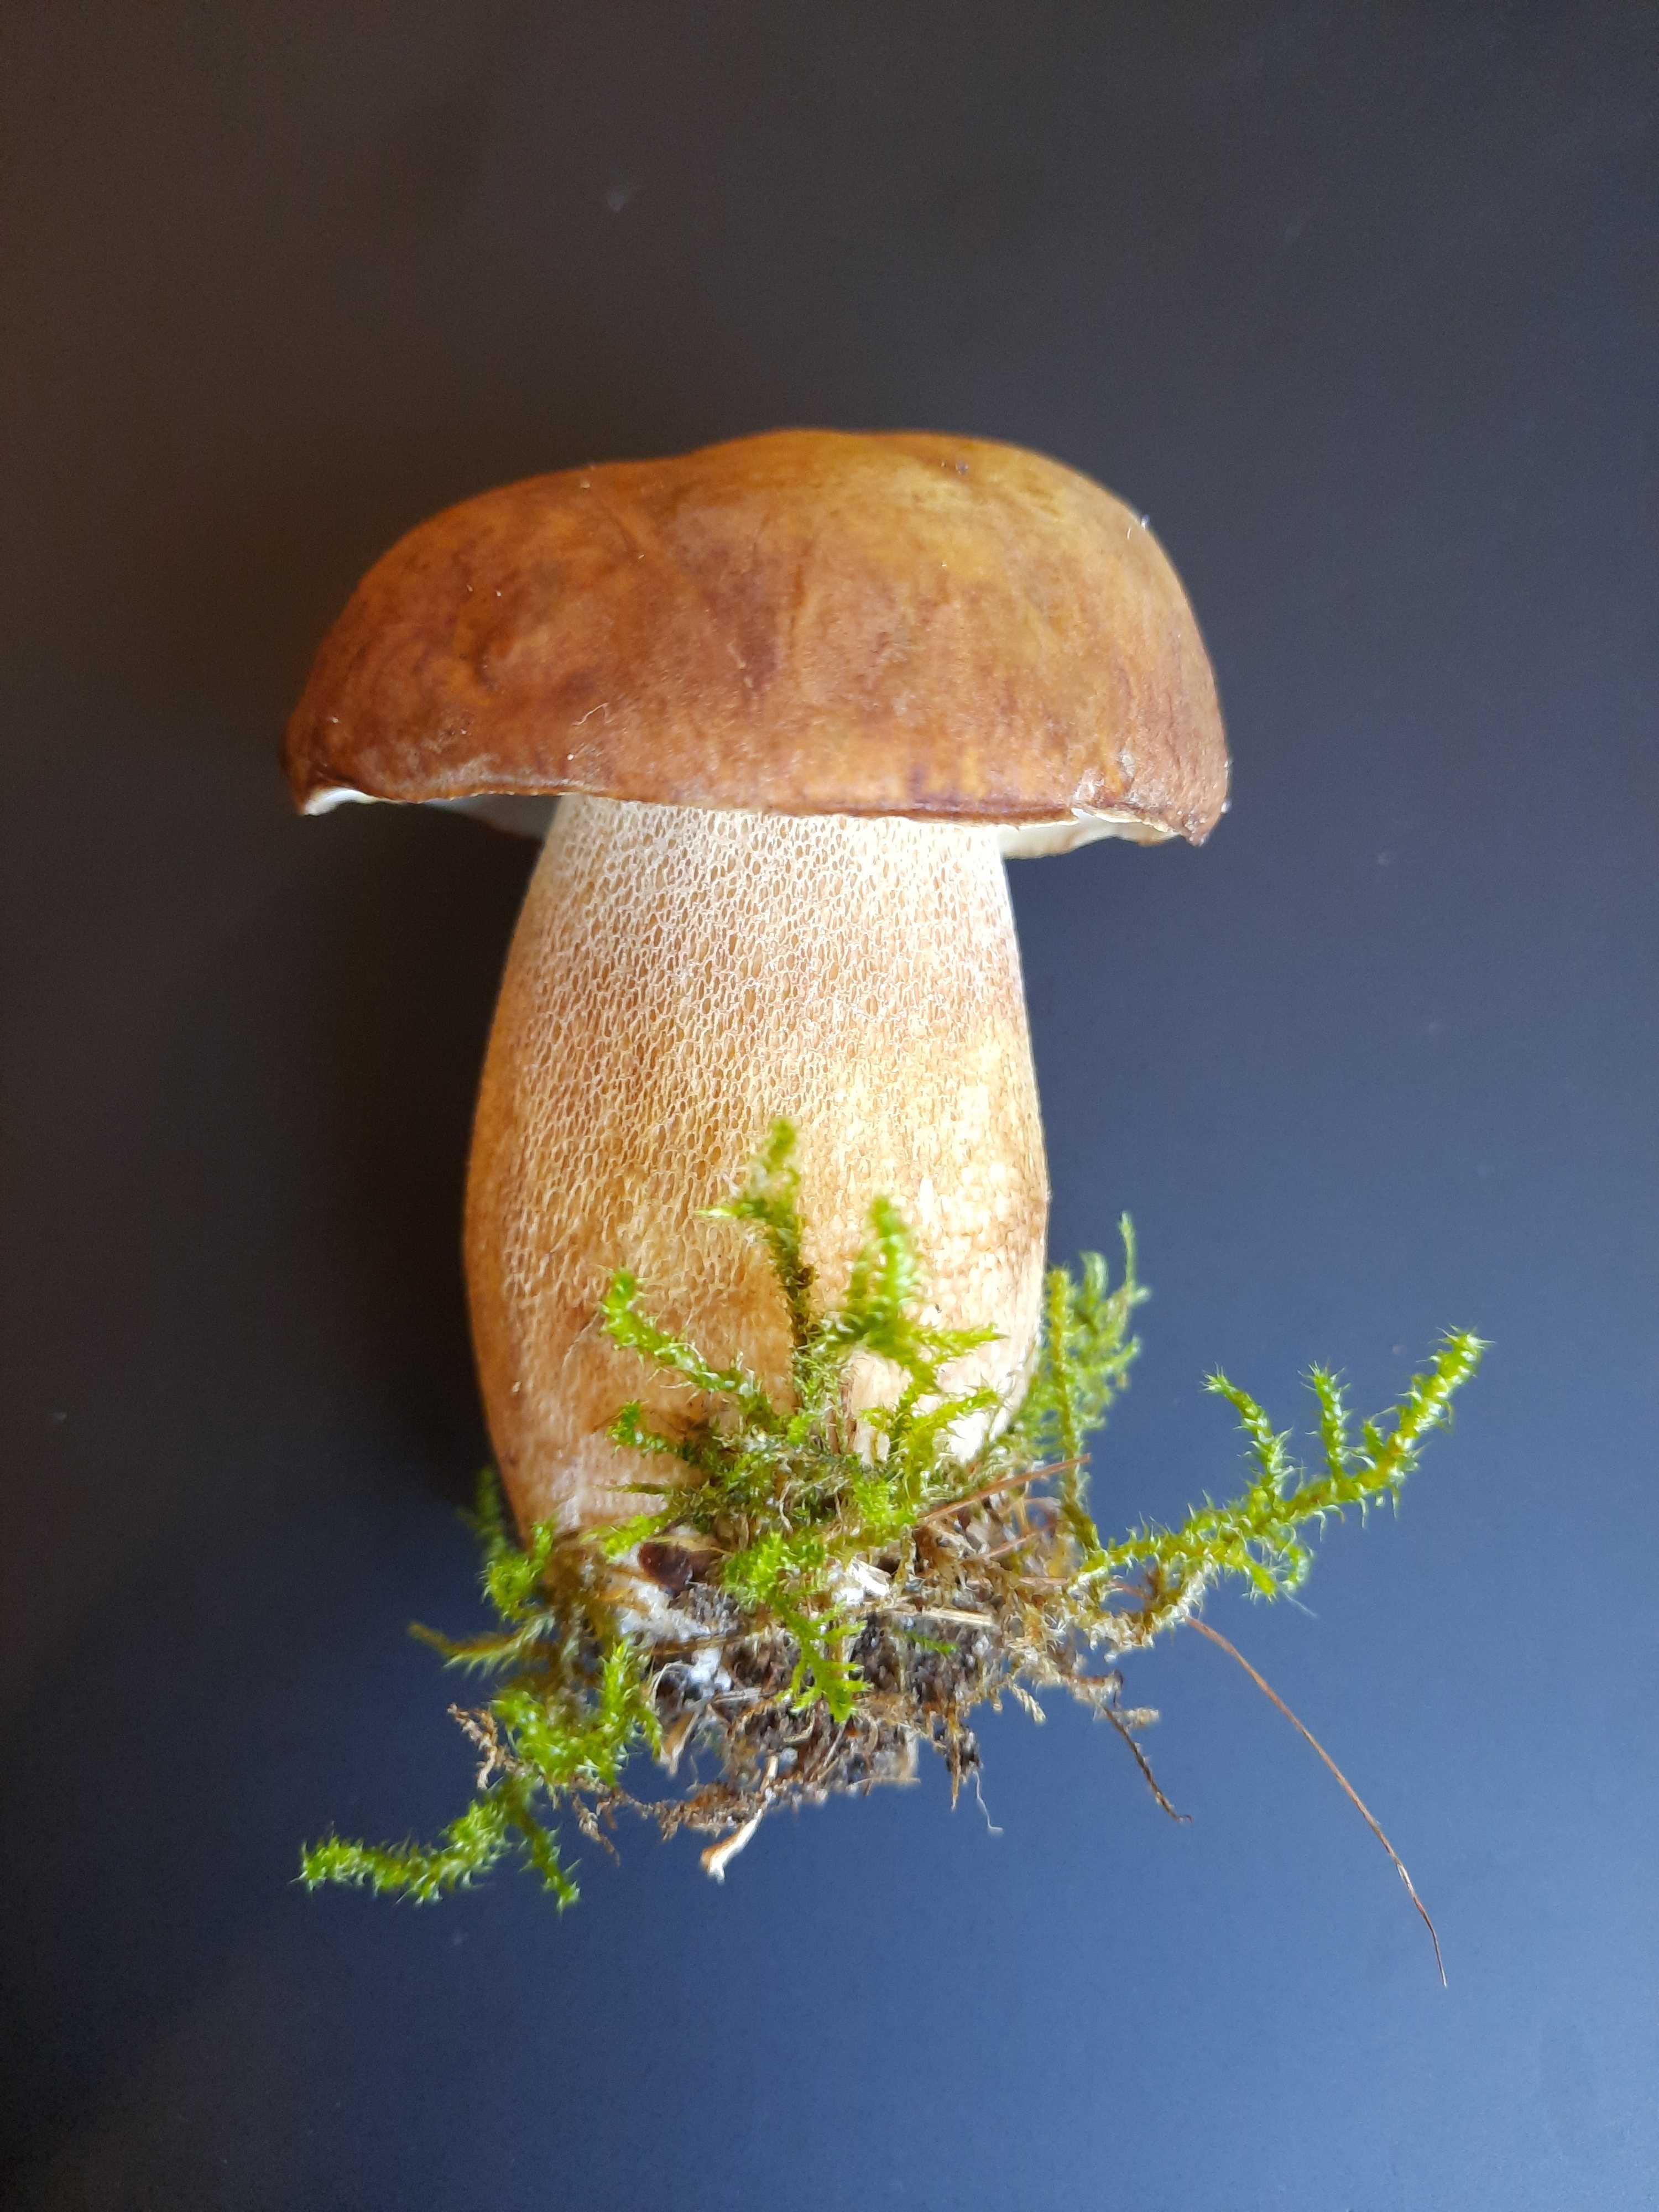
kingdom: Fungi
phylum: Basidiomycota
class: Agaricomycetes
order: Boletales
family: Boletaceae
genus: Boletus
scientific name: Boletus reticulatus
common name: sommer-rørhat
